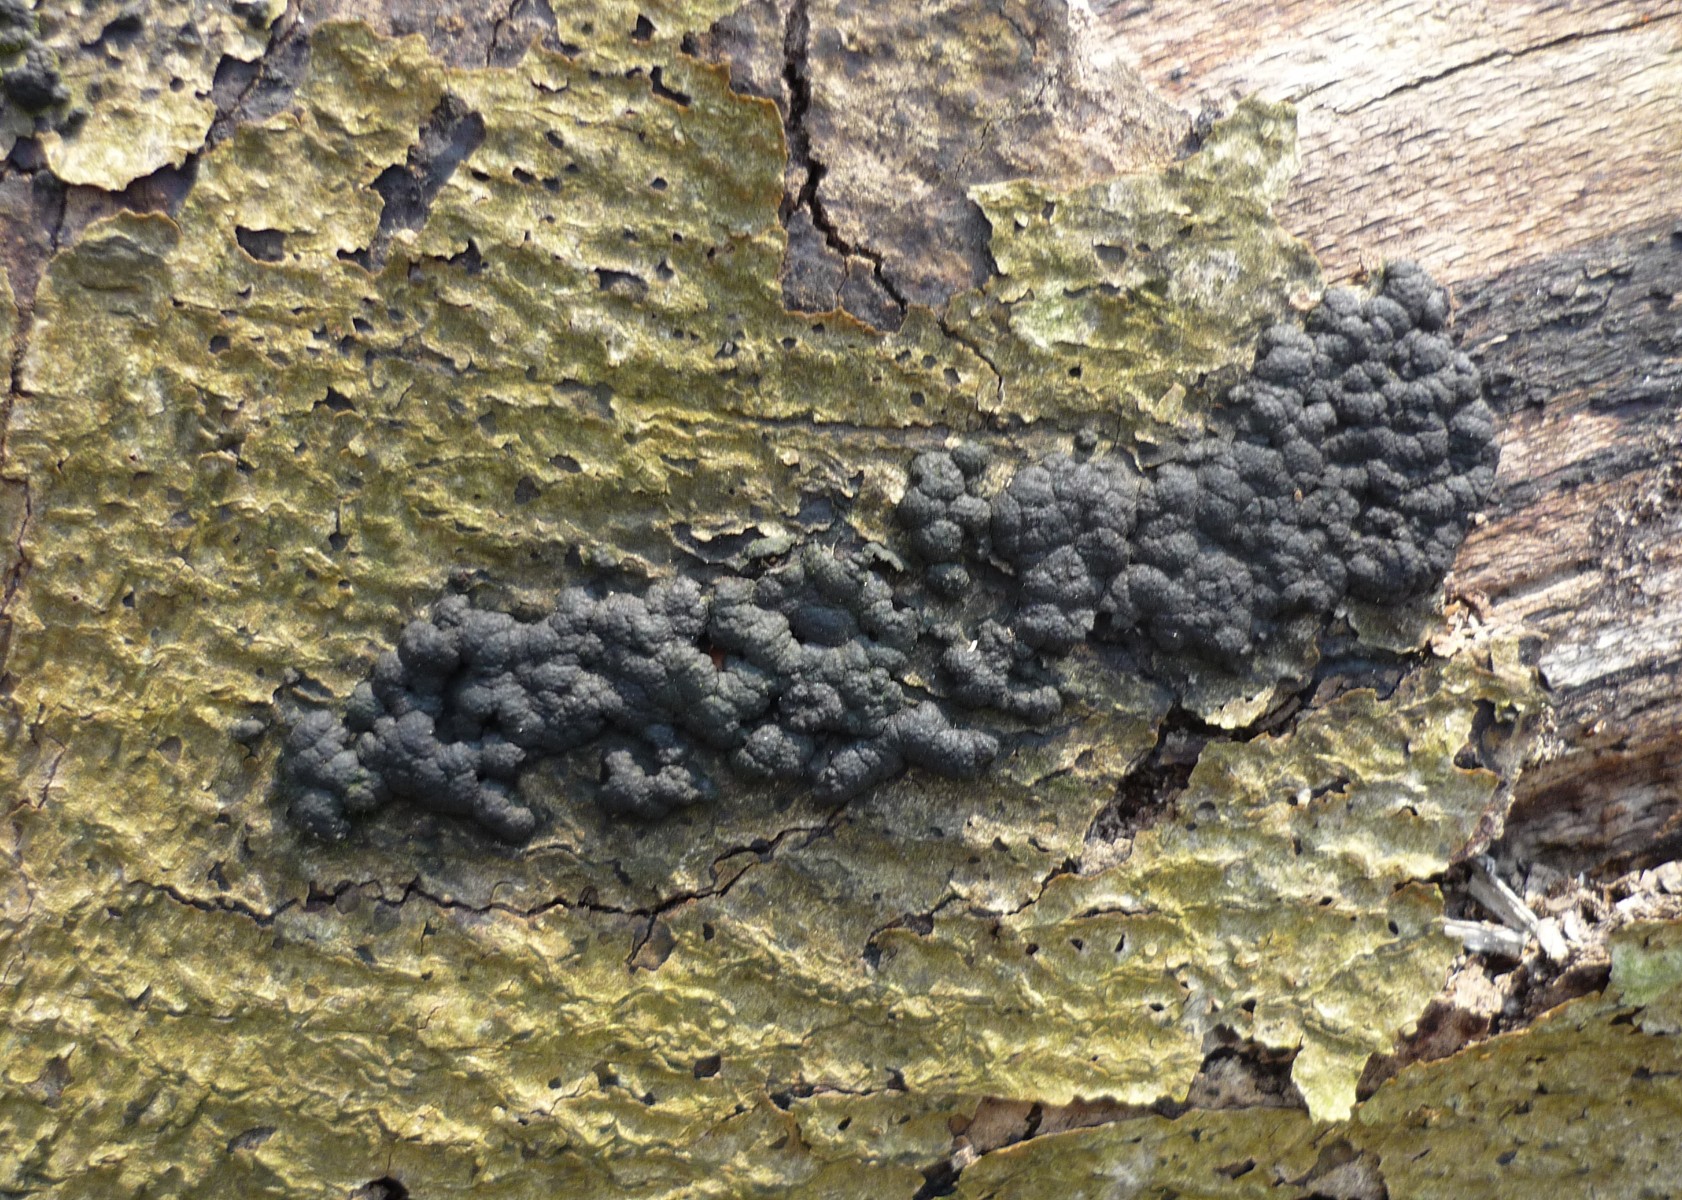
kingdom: Fungi
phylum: Ascomycota
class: Sordariomycetes
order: Xylariales
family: Hypoxylaceae
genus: Jackrogersella
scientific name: Jackrogersella cohaerens
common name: sammenflydende kulbær
